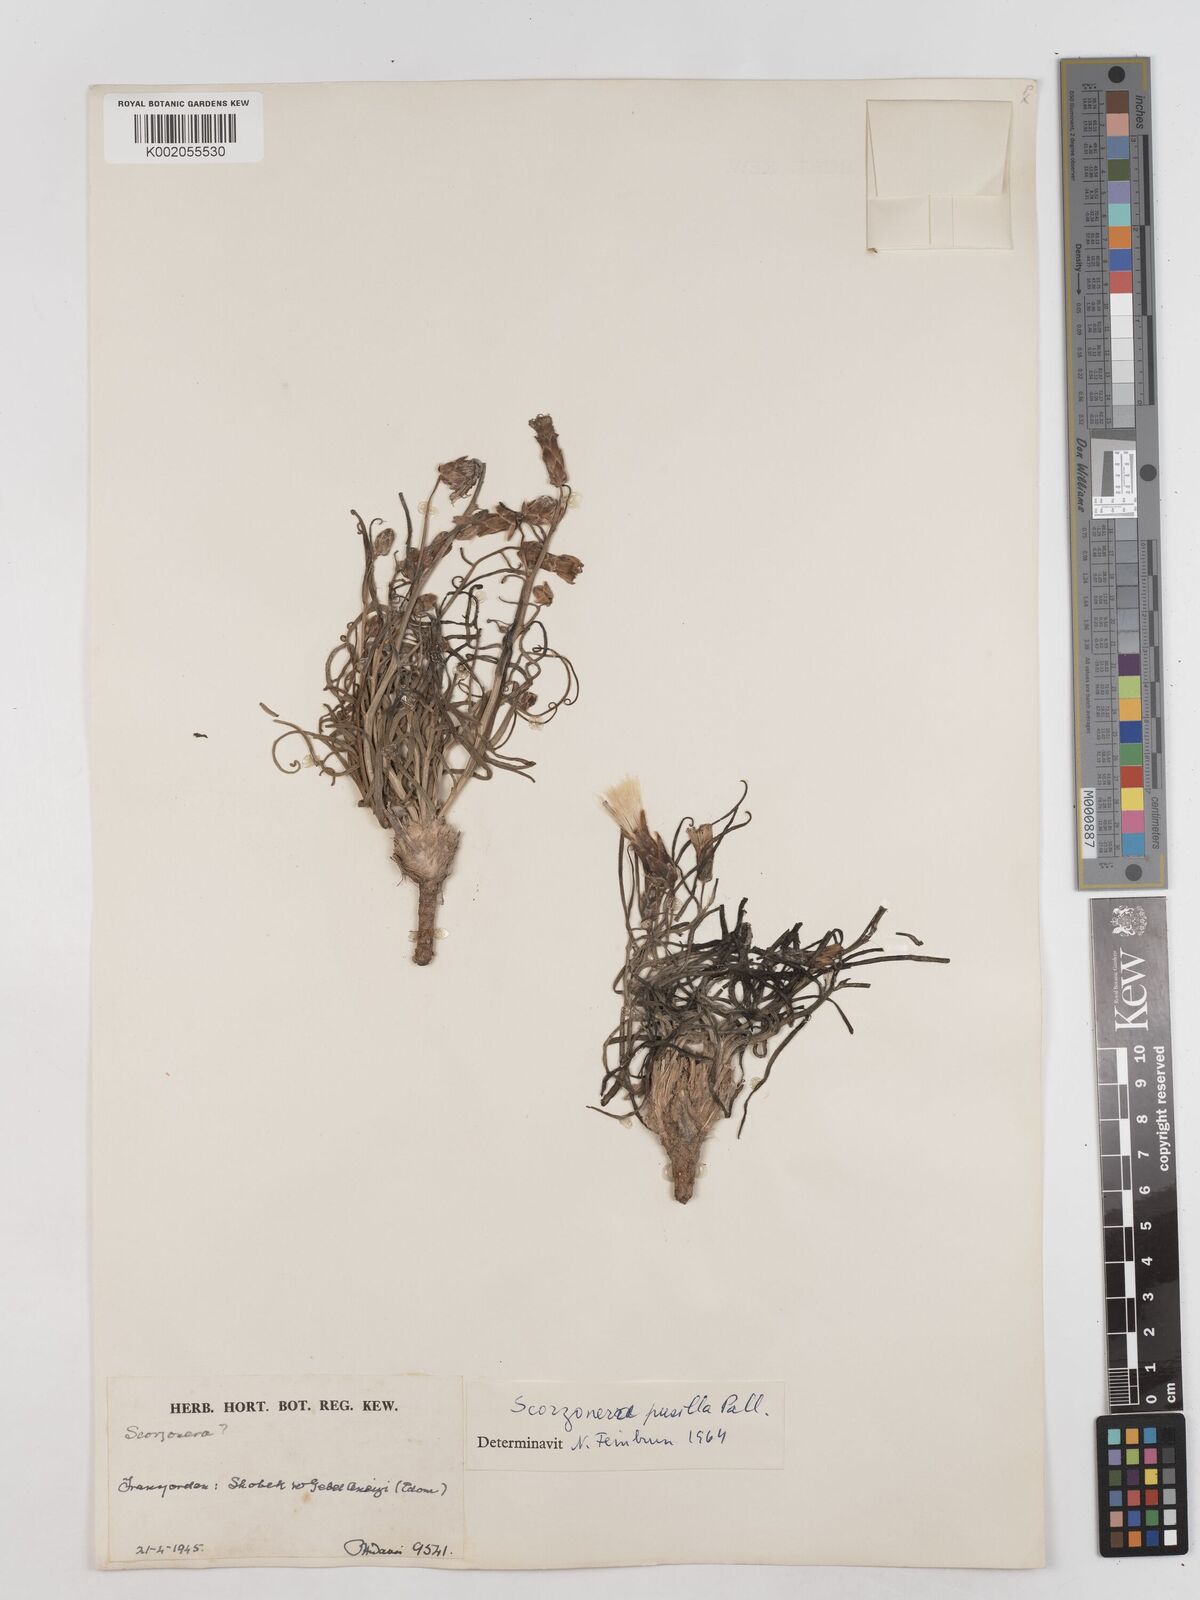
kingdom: Plantae
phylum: Tracheophyta
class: Magnoliopsida
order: Asterales
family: Asteraceae
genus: Takhtajaniantha
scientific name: Takhtajaniantha pusilla
